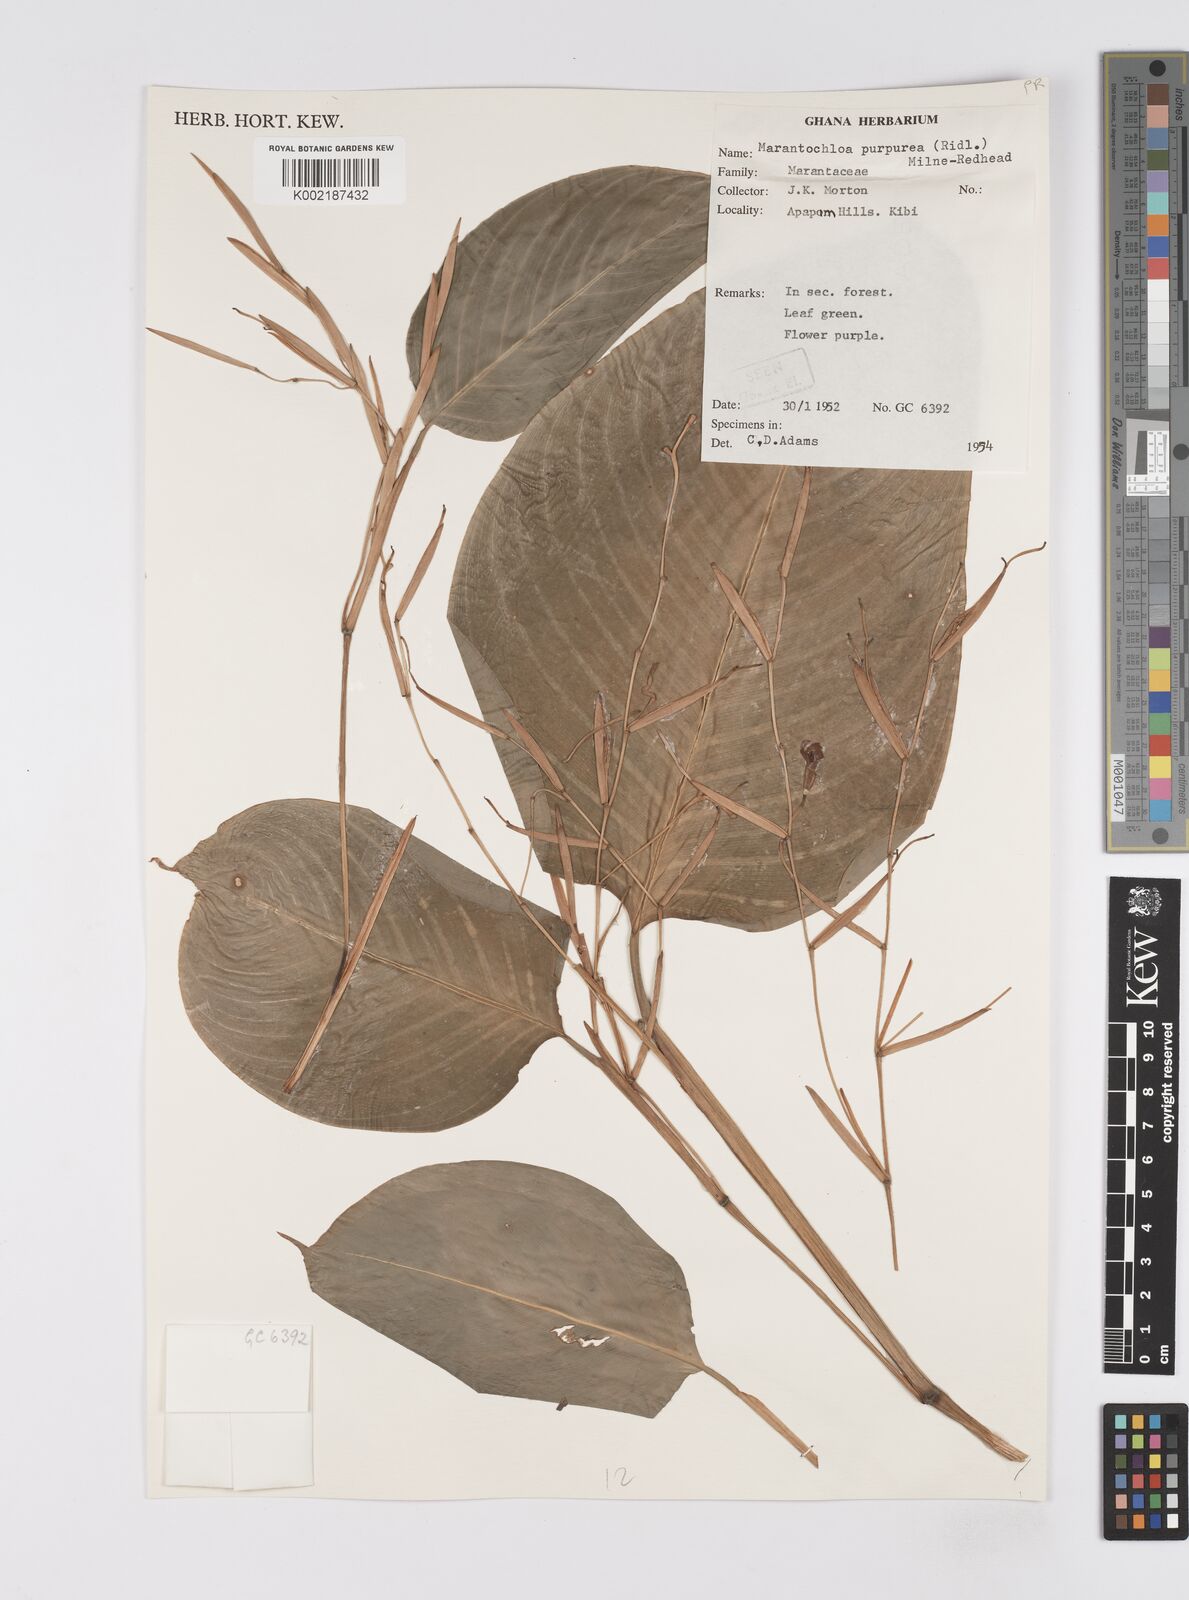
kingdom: Plantae
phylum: Tracheophyta
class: Liliopsida
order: Zingiberales
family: Marantaceae
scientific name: Marantaceae
